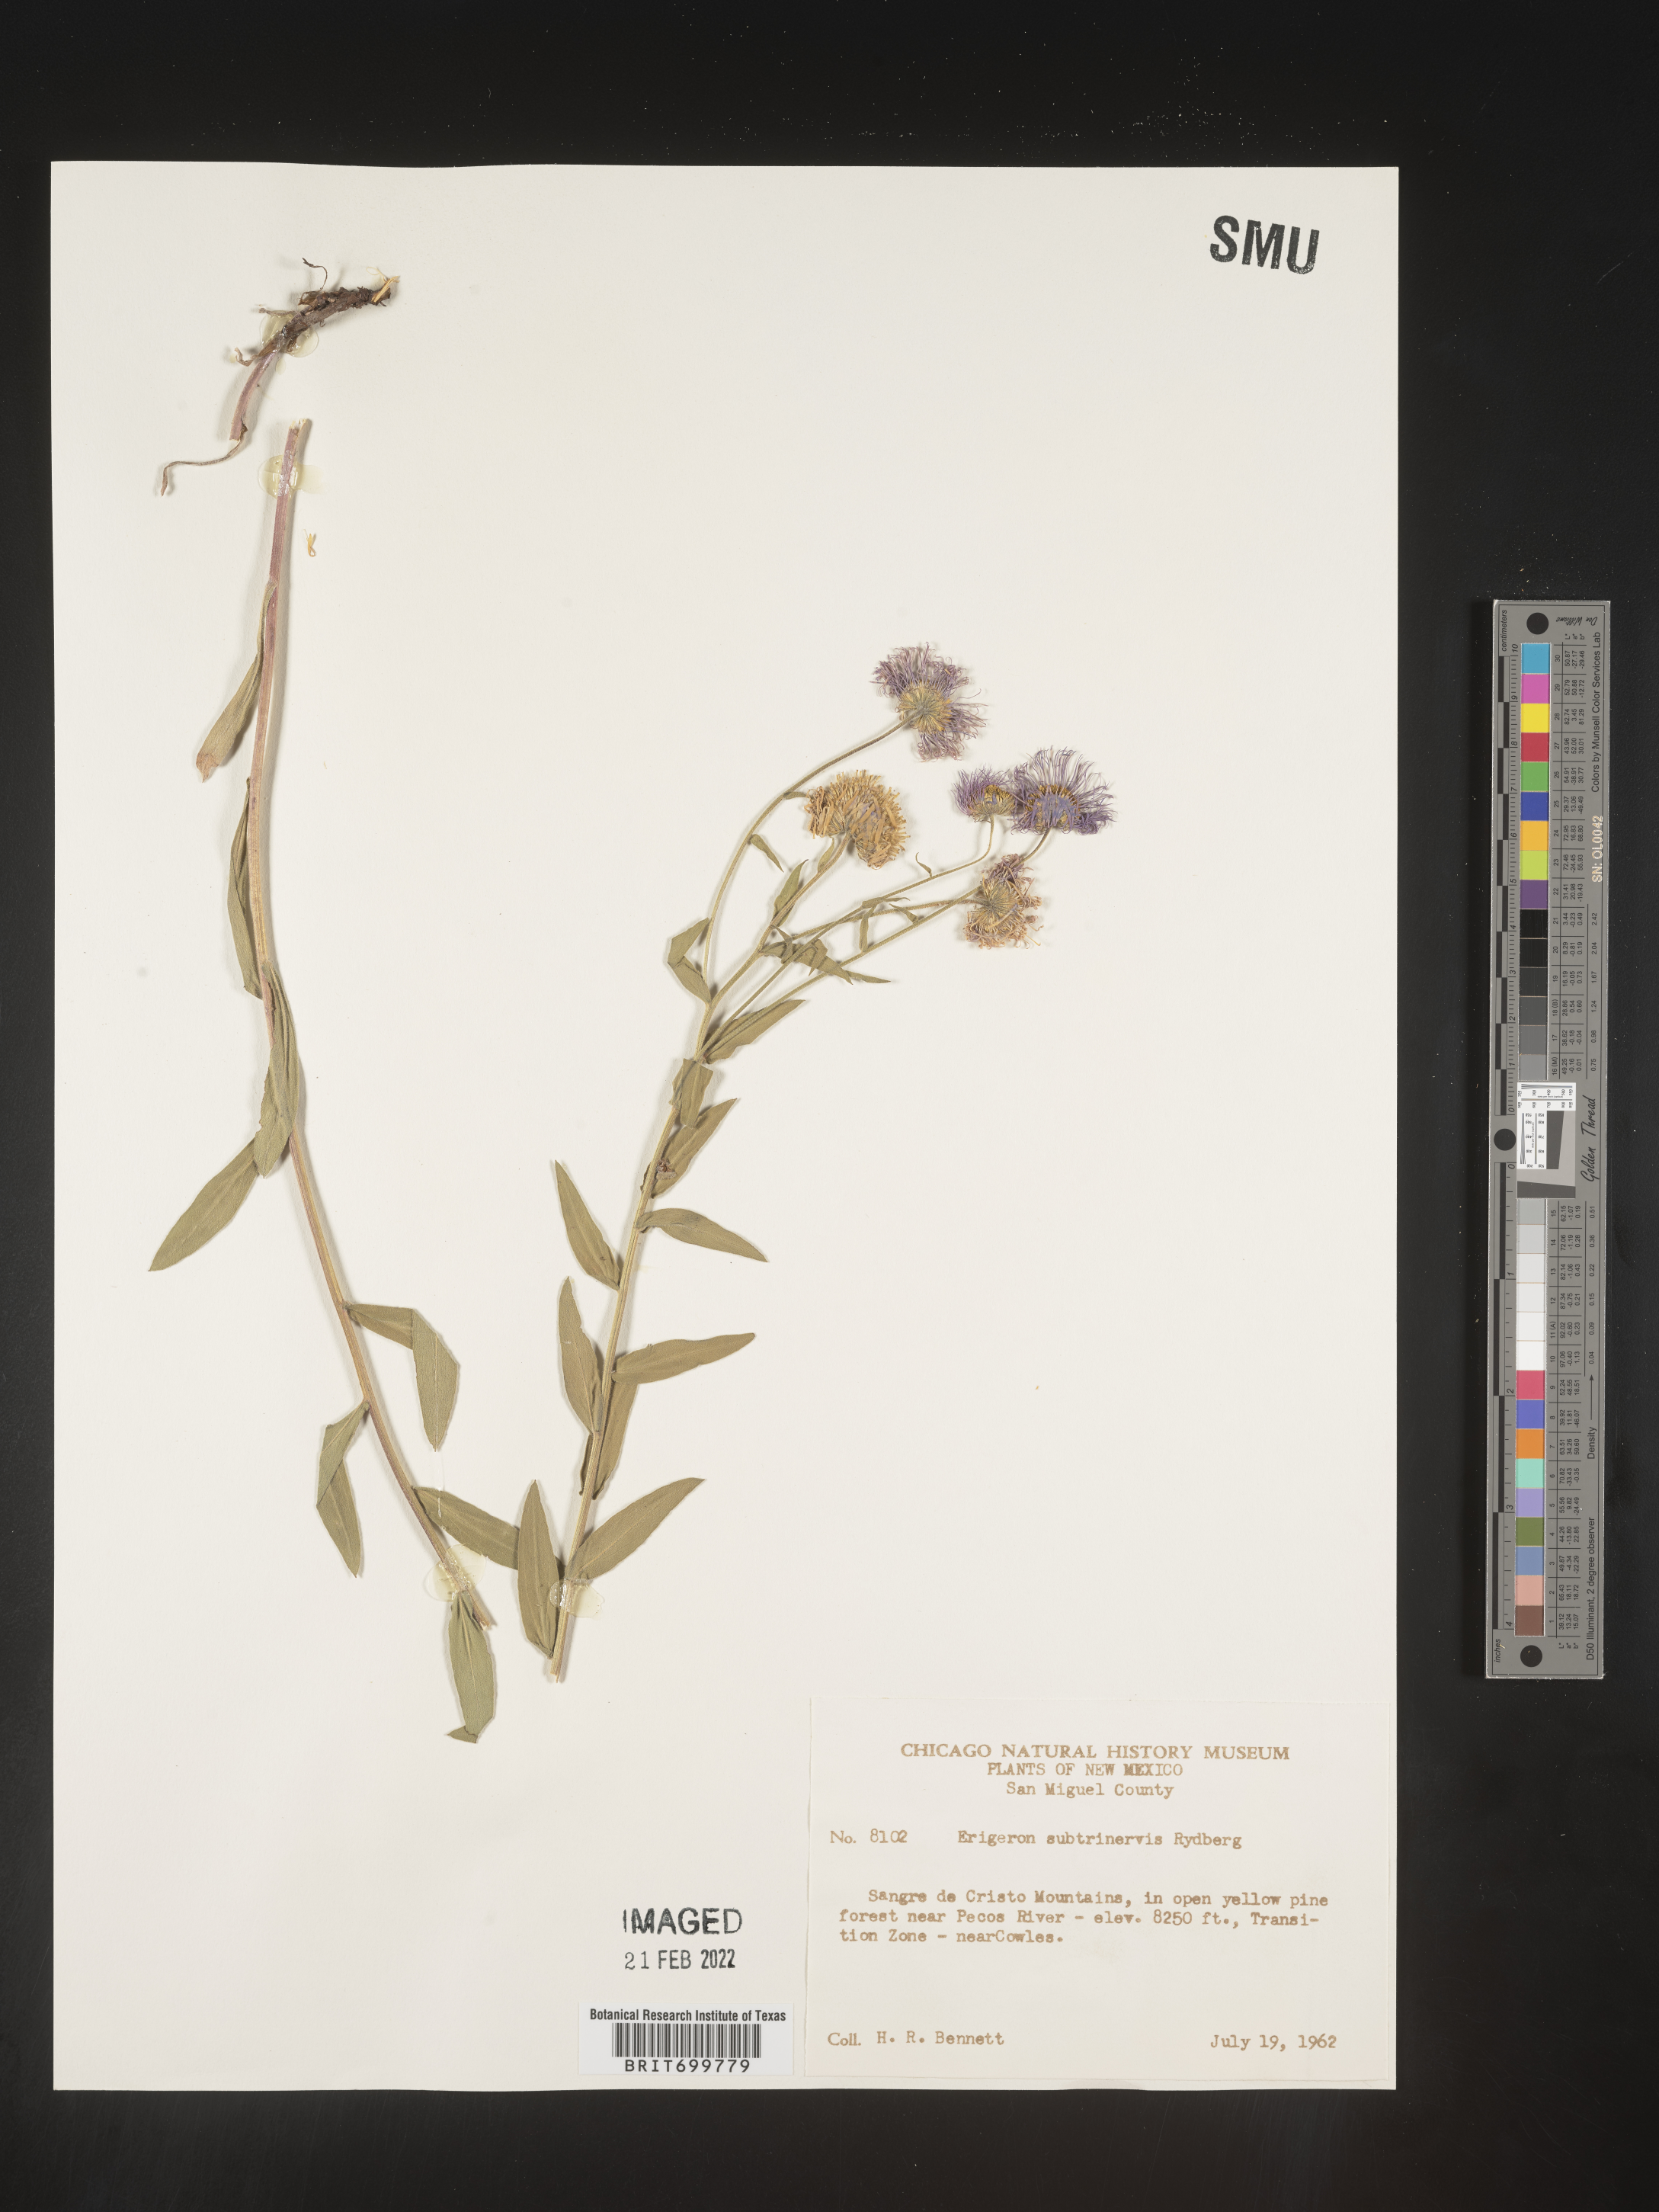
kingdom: Plantae
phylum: Tracheophyta
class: Magnoliopsida
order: Asterales
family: Asteraceae
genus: Erigeron
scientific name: Erigeron subtrinervis
